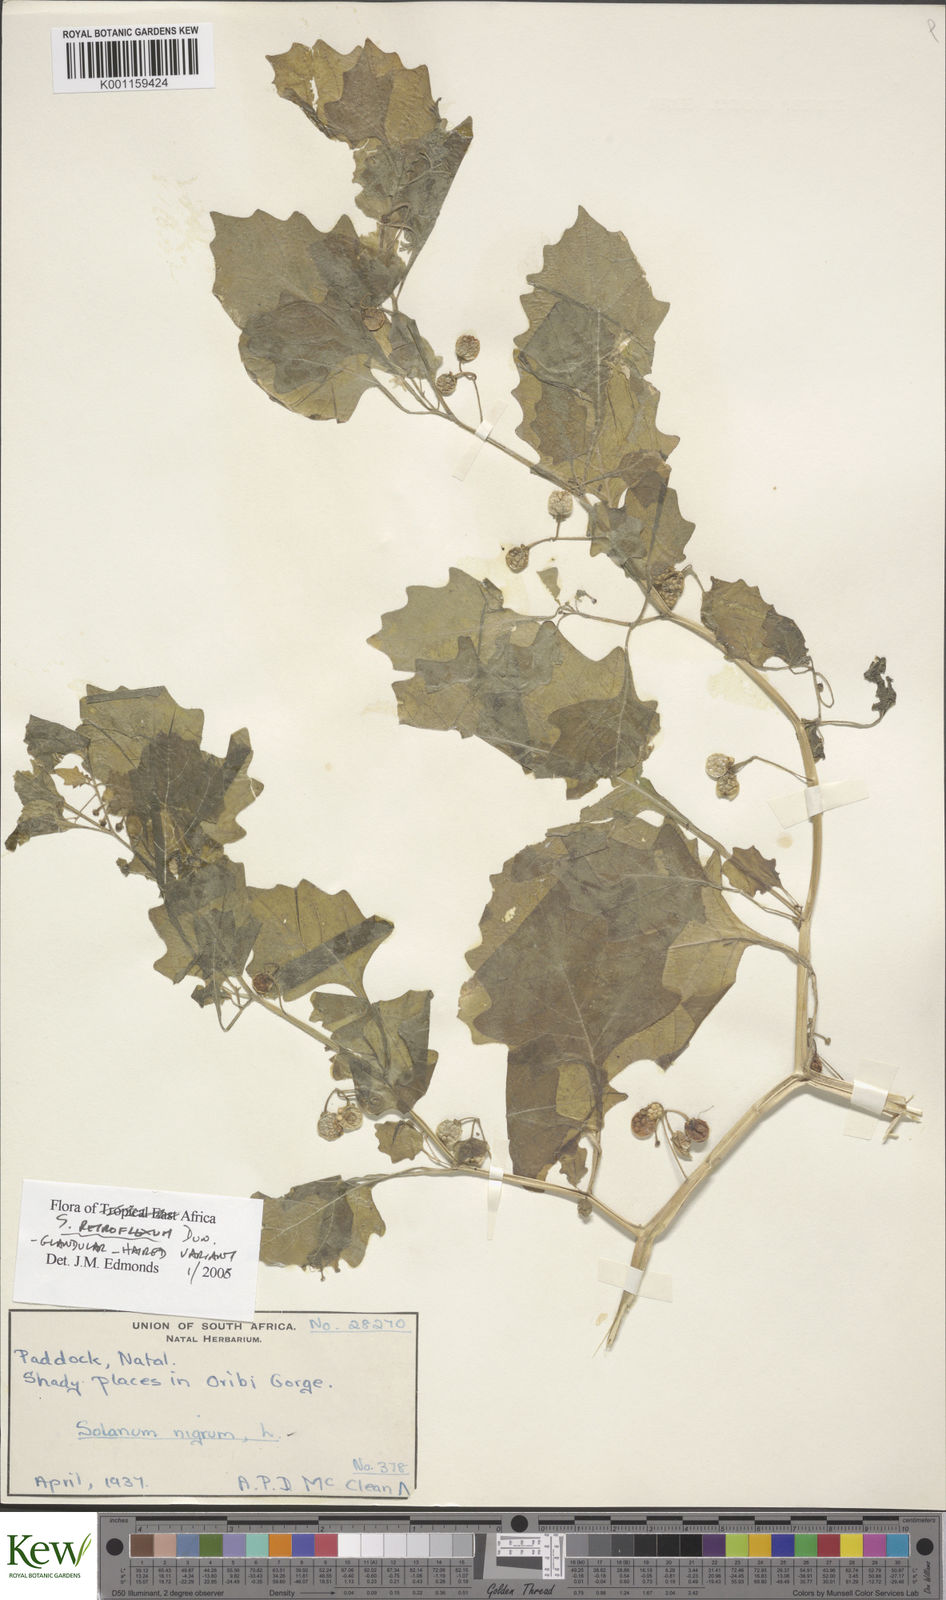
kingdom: Plantae
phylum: Tracheophyta
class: Magnoliopsida
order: Solanales
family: Solanaceae
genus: Solanum
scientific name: Solanum retroflexum
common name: Wonderberry
